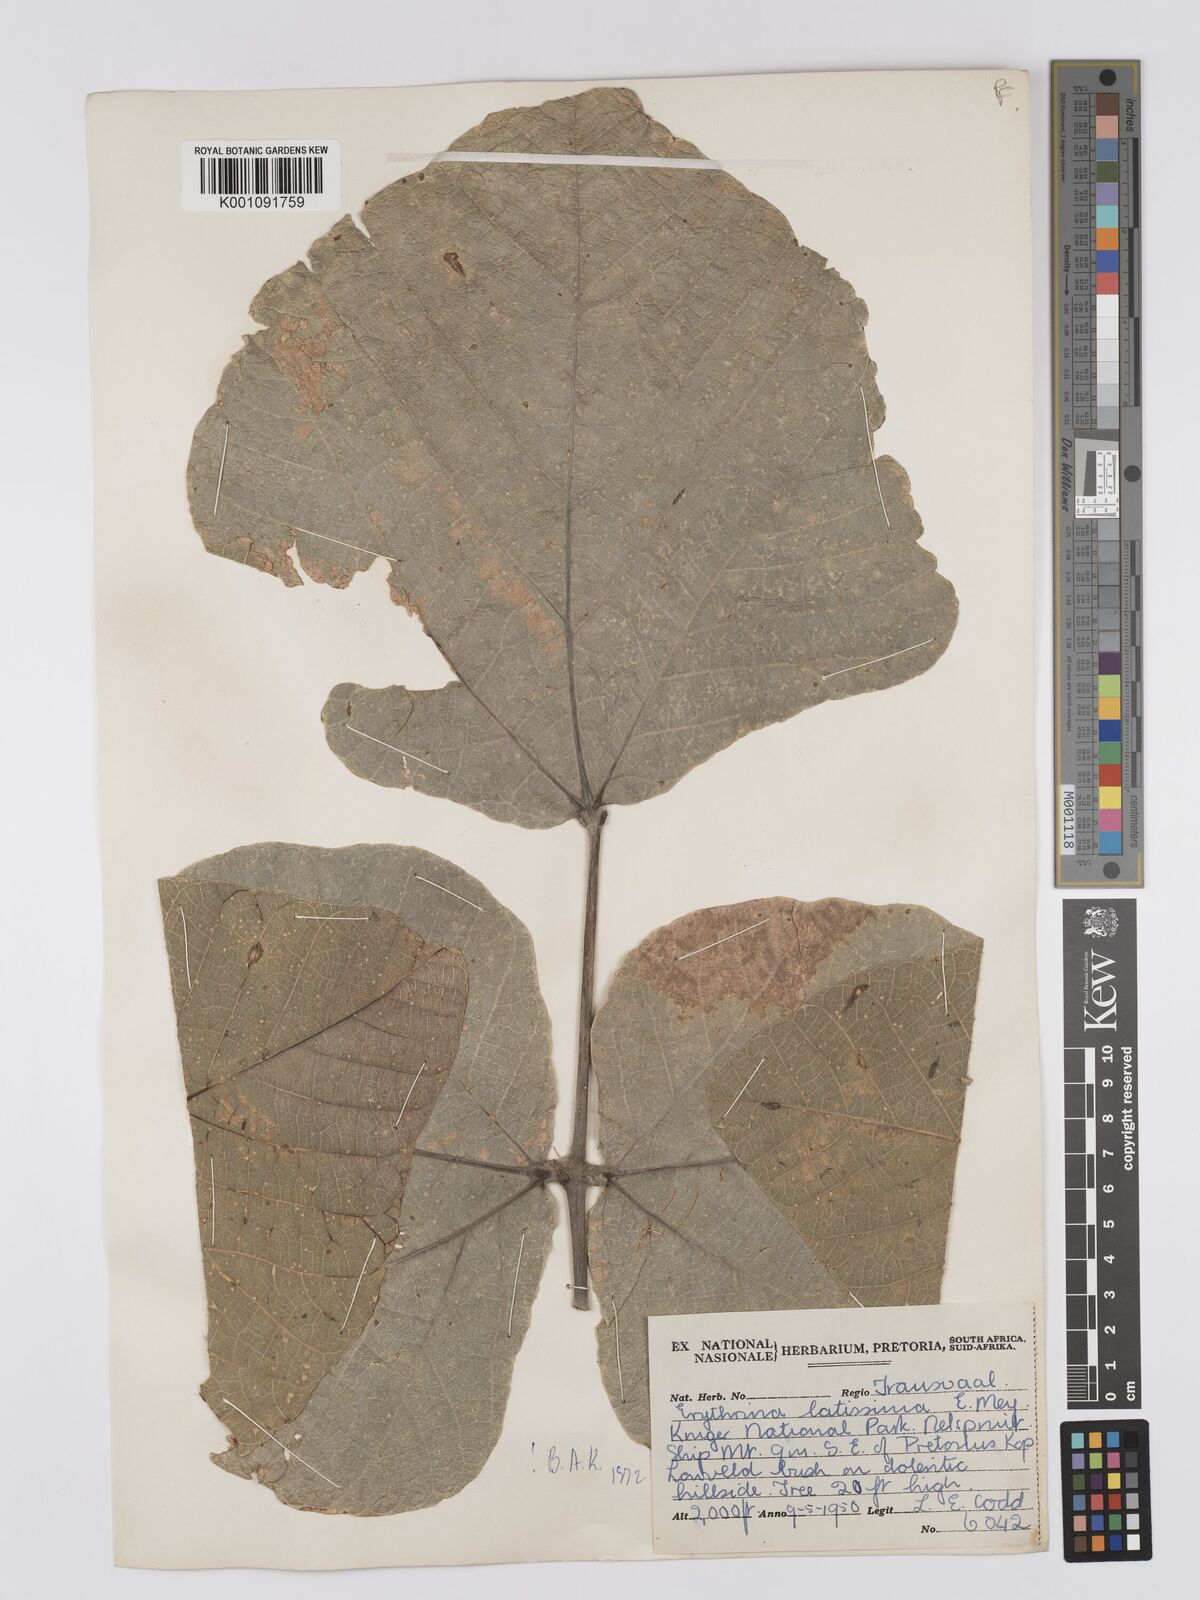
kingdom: Plantae
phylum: Tracheophyta
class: Magnoliopsida
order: Fabales
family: Fabaceae
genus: Erythrina
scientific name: Erythrina latissima
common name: Broad-leaved coral tree
